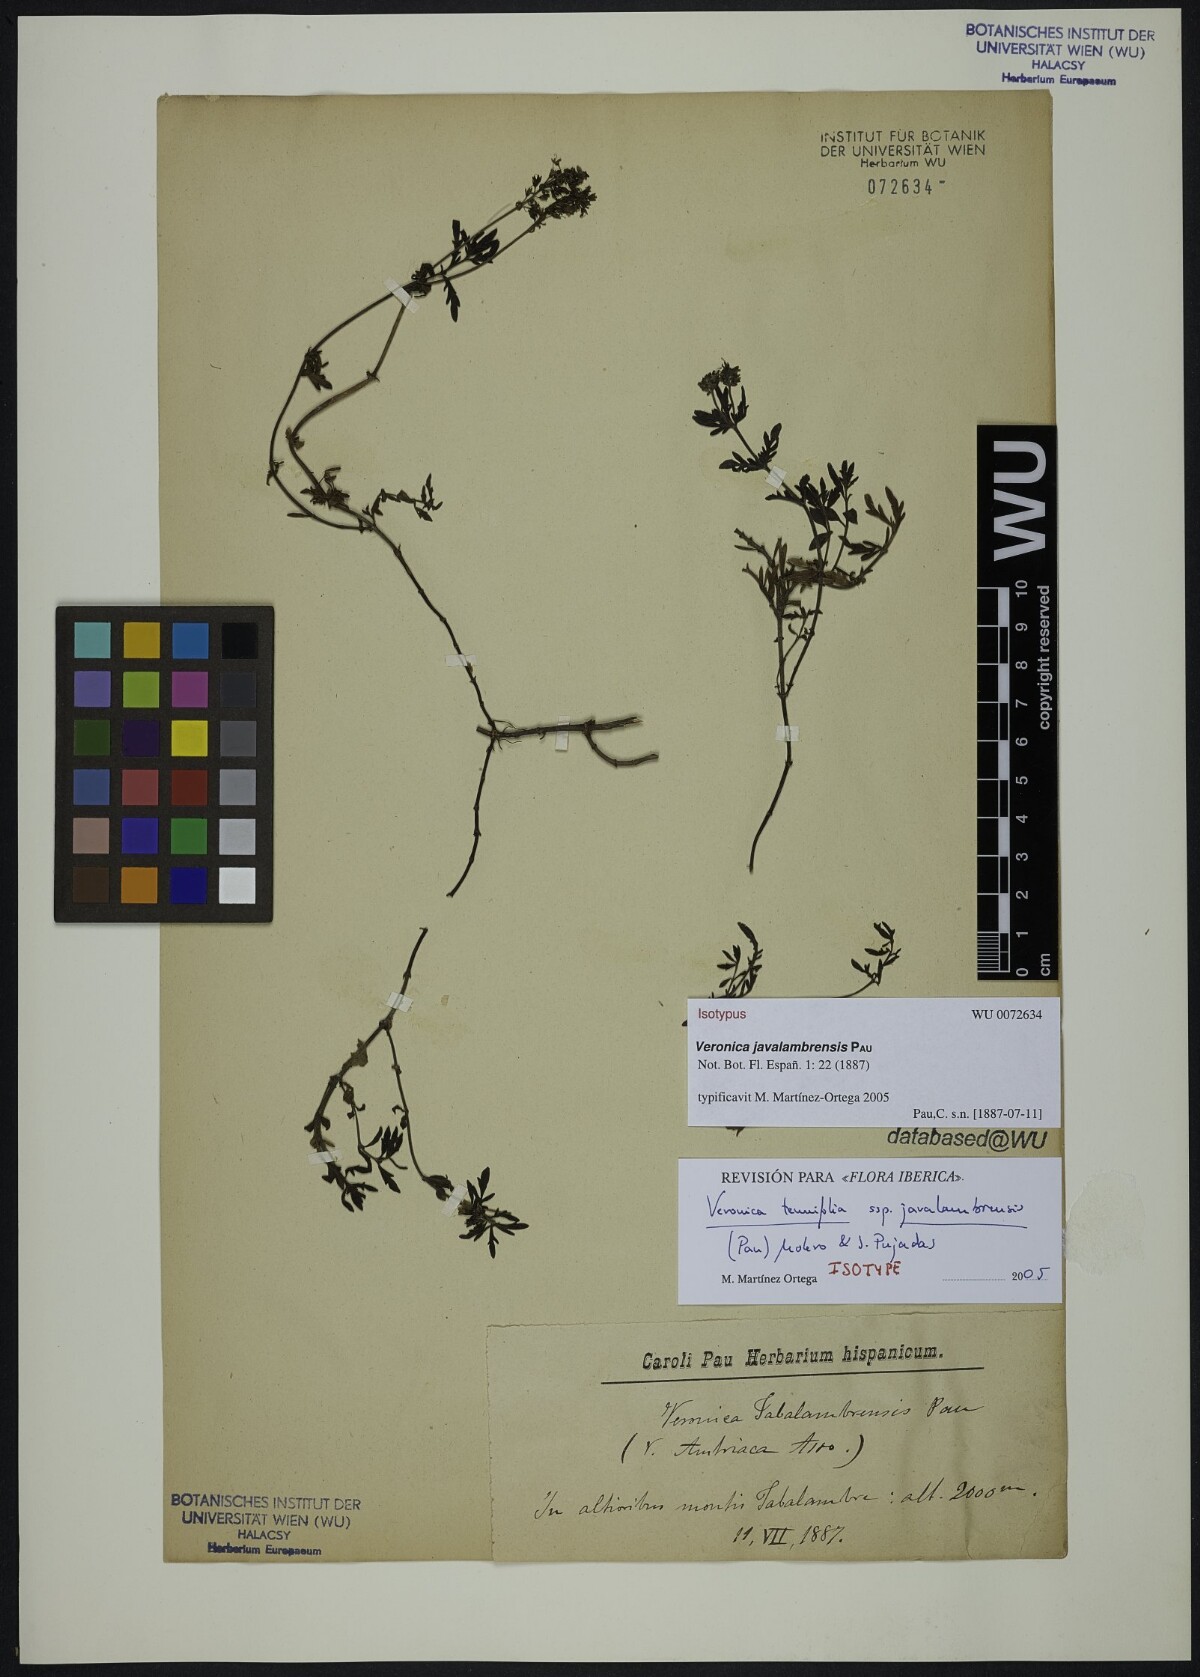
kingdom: Plantae
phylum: Tracheophyta
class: Magnoliopsida
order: Lamiales
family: Plantaginaceae
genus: Veronica
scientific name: Veronica tenuifolia
